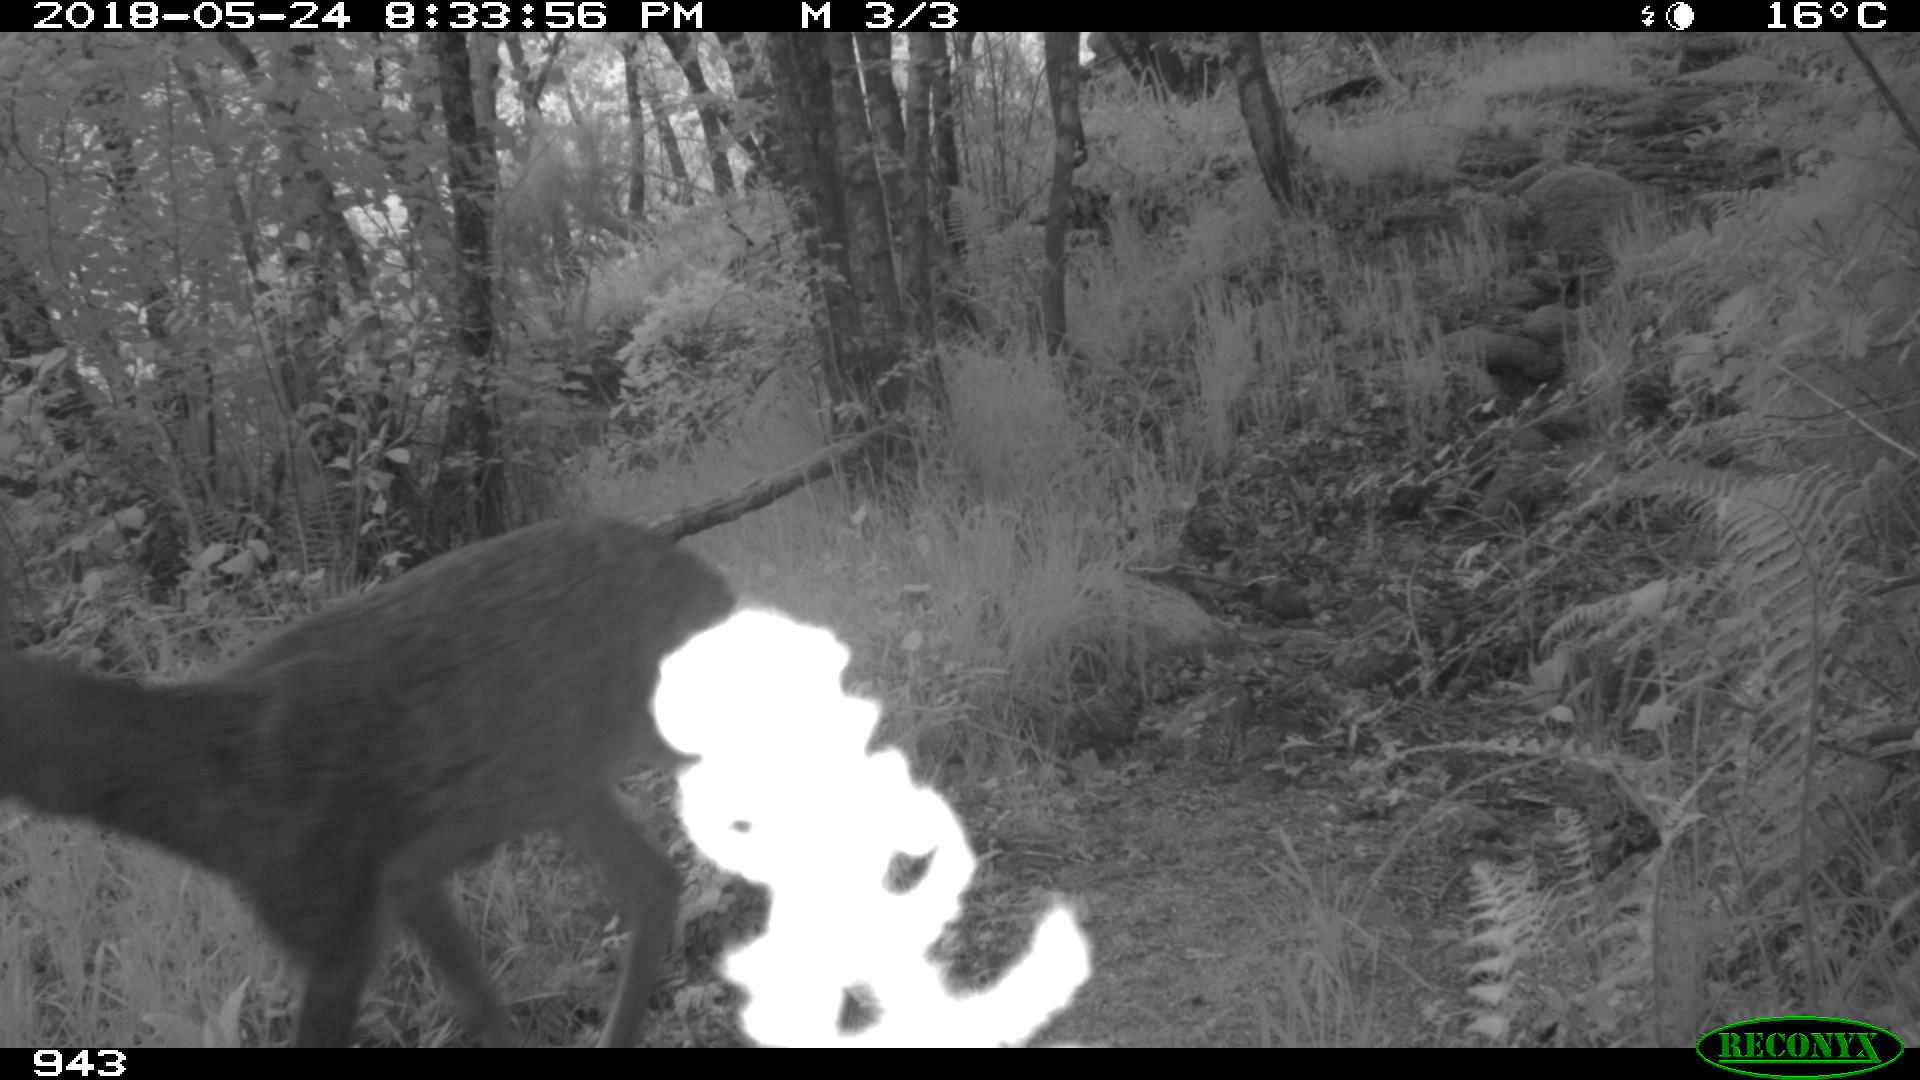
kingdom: Animalia
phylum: Chordata
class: Mammalia
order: Artiodactyla
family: Cervidae
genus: Capreolus
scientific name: Capreolus capreolus
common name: Western roe deer
